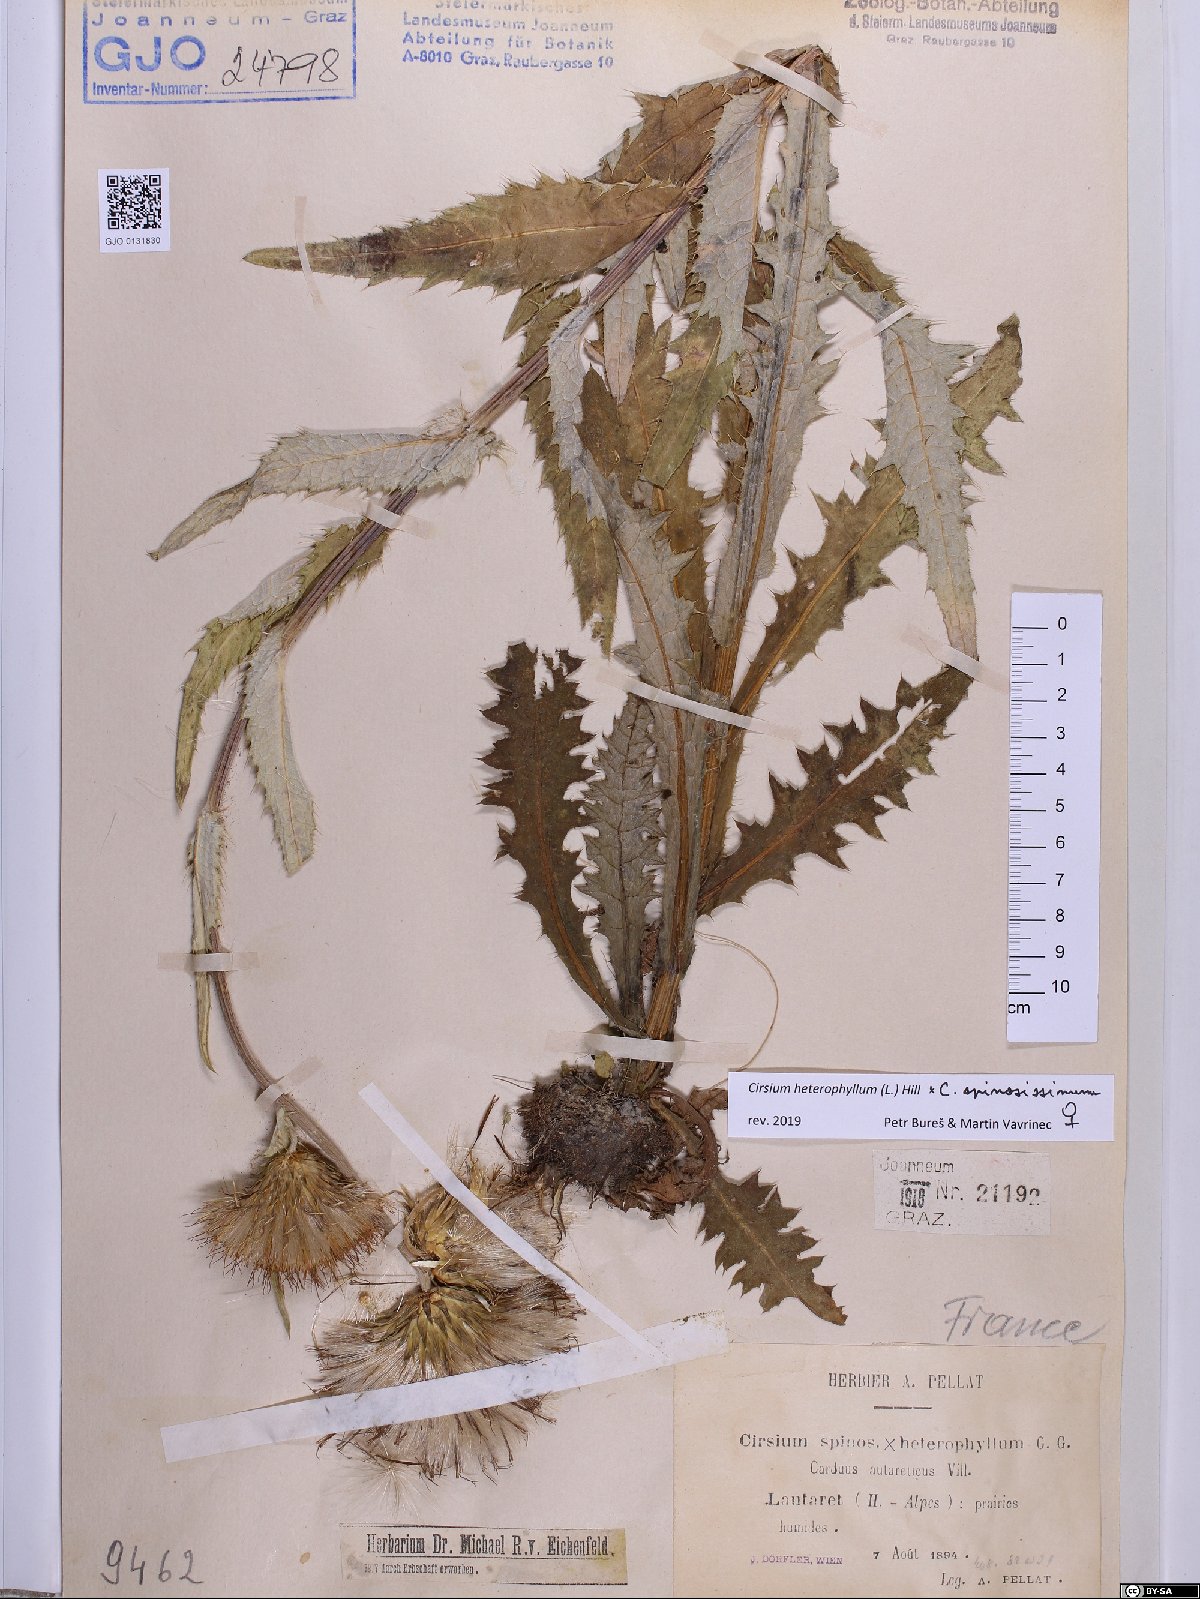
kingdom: Plantae
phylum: Tracheophyta
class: Magnoliopsida
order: Asterales
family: Asteraceae
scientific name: Asteraceae
